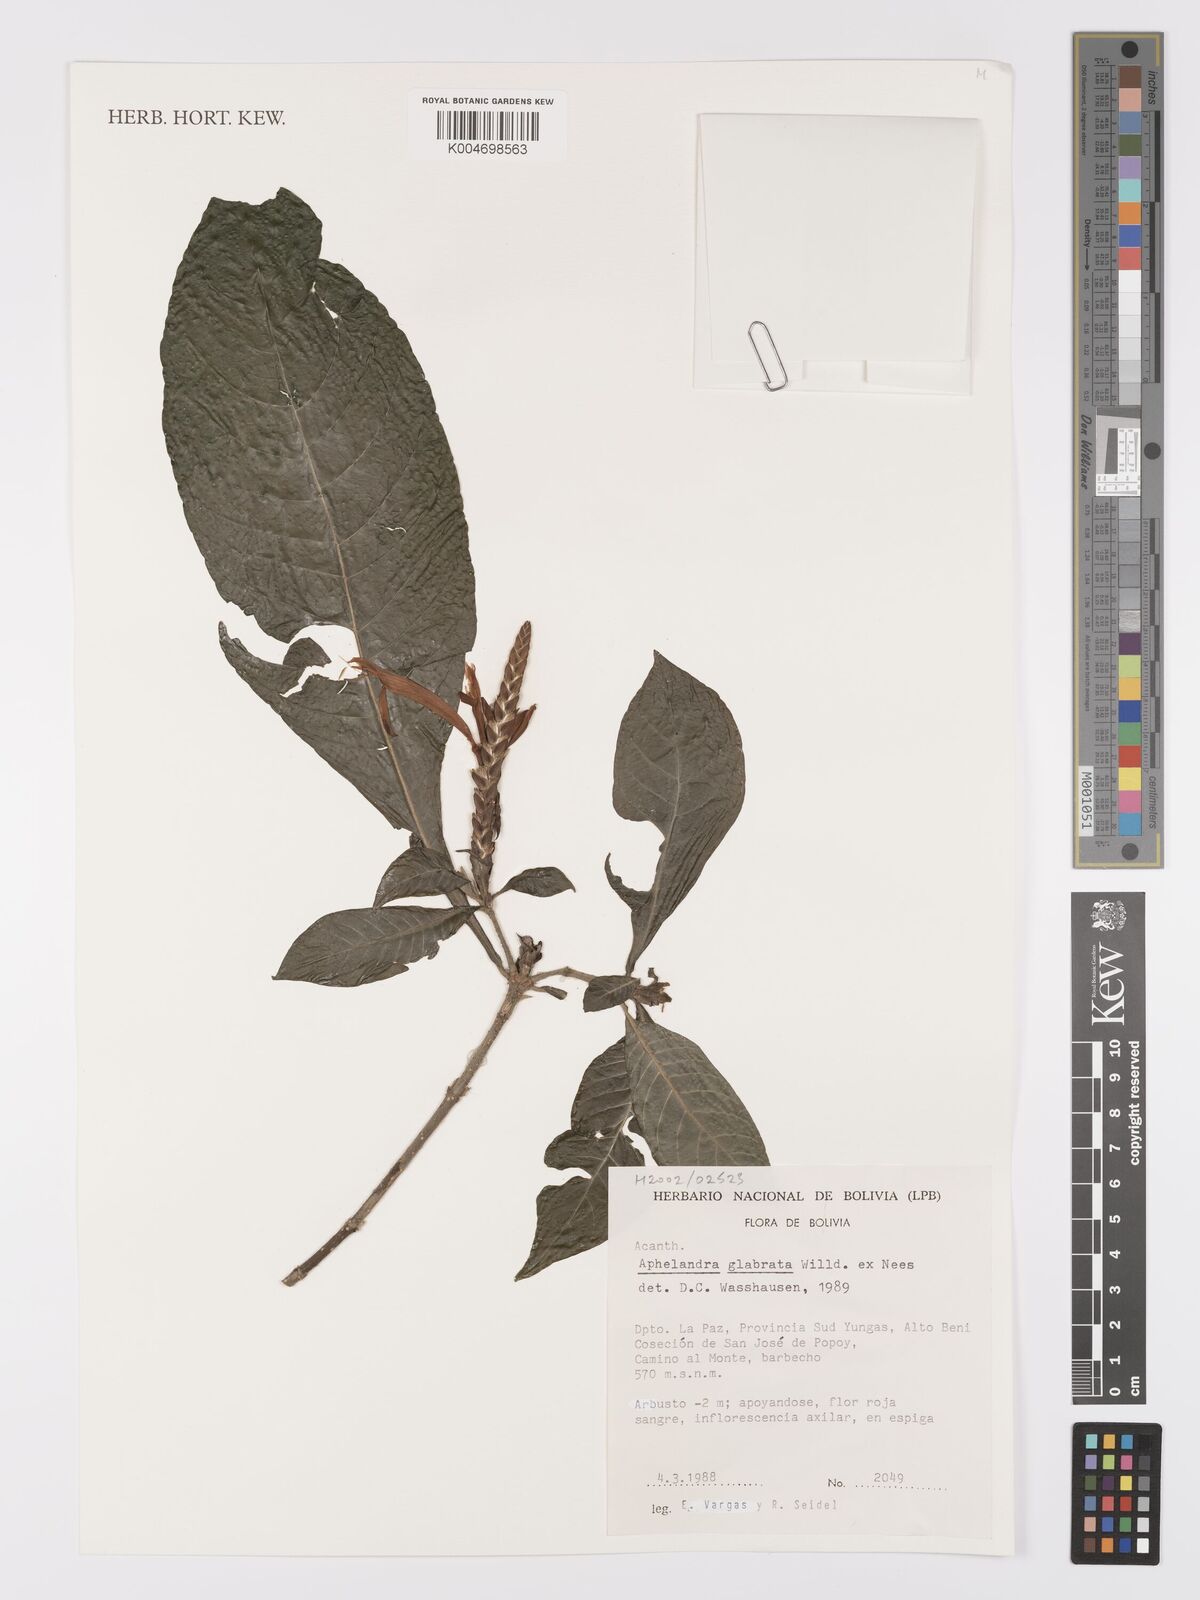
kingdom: Plantae
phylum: Tracheophyta
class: Magnoliopsida
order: Lamiales
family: Acanthaceae
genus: Aphelandra
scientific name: Aphelandra glabrata
